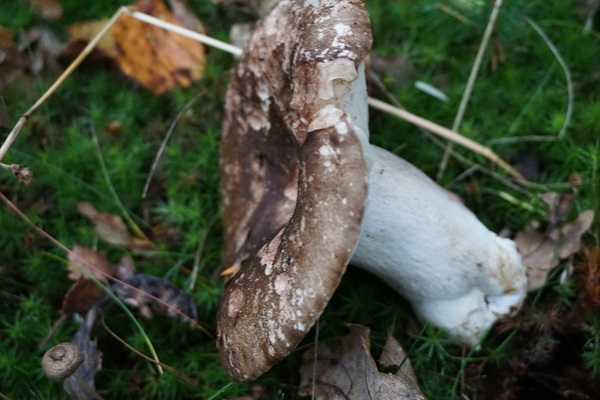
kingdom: Fungi
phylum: Basidiomycota
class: Agaricomycetes
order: Russulales
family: Russulaceae
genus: Russula
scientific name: Russula adusta
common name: sværtende skørhat
